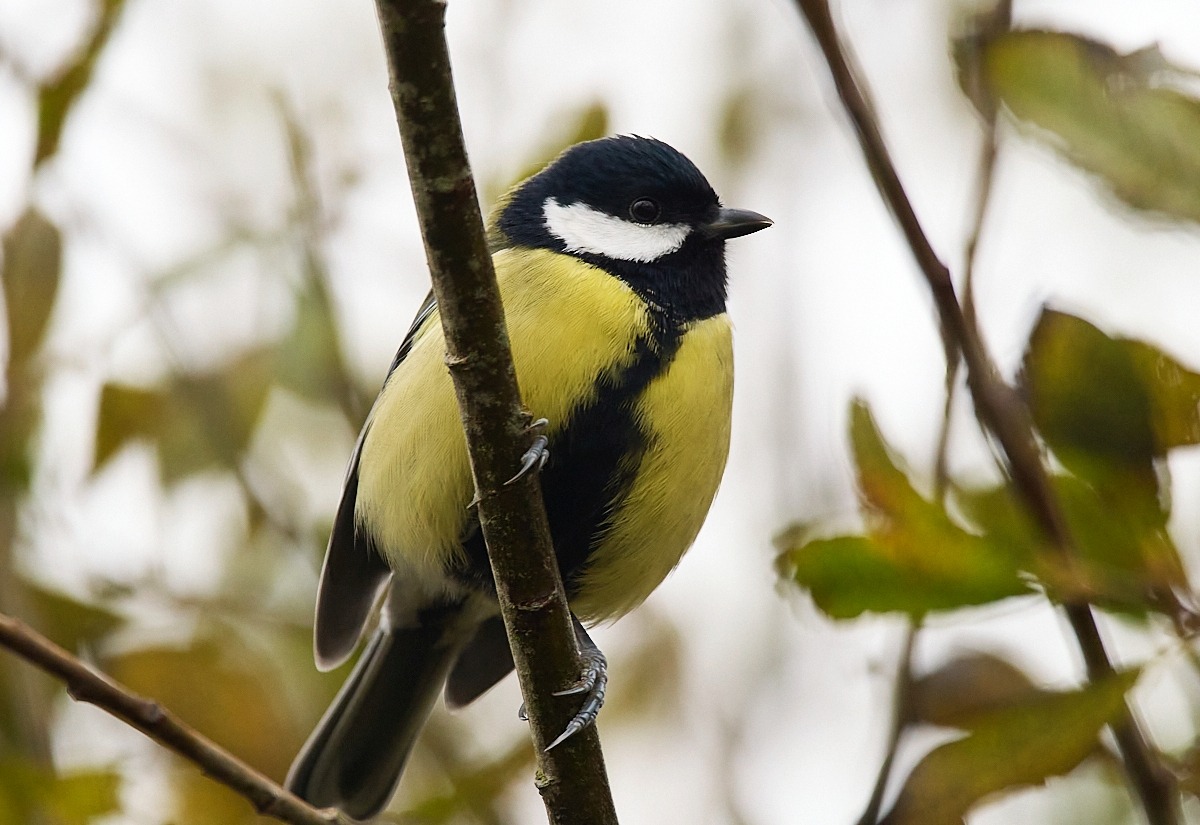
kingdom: Animalia
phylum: Chordata
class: Aves
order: Passeriformes
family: Paridae
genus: Parus
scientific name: Parus major
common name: Musvit
